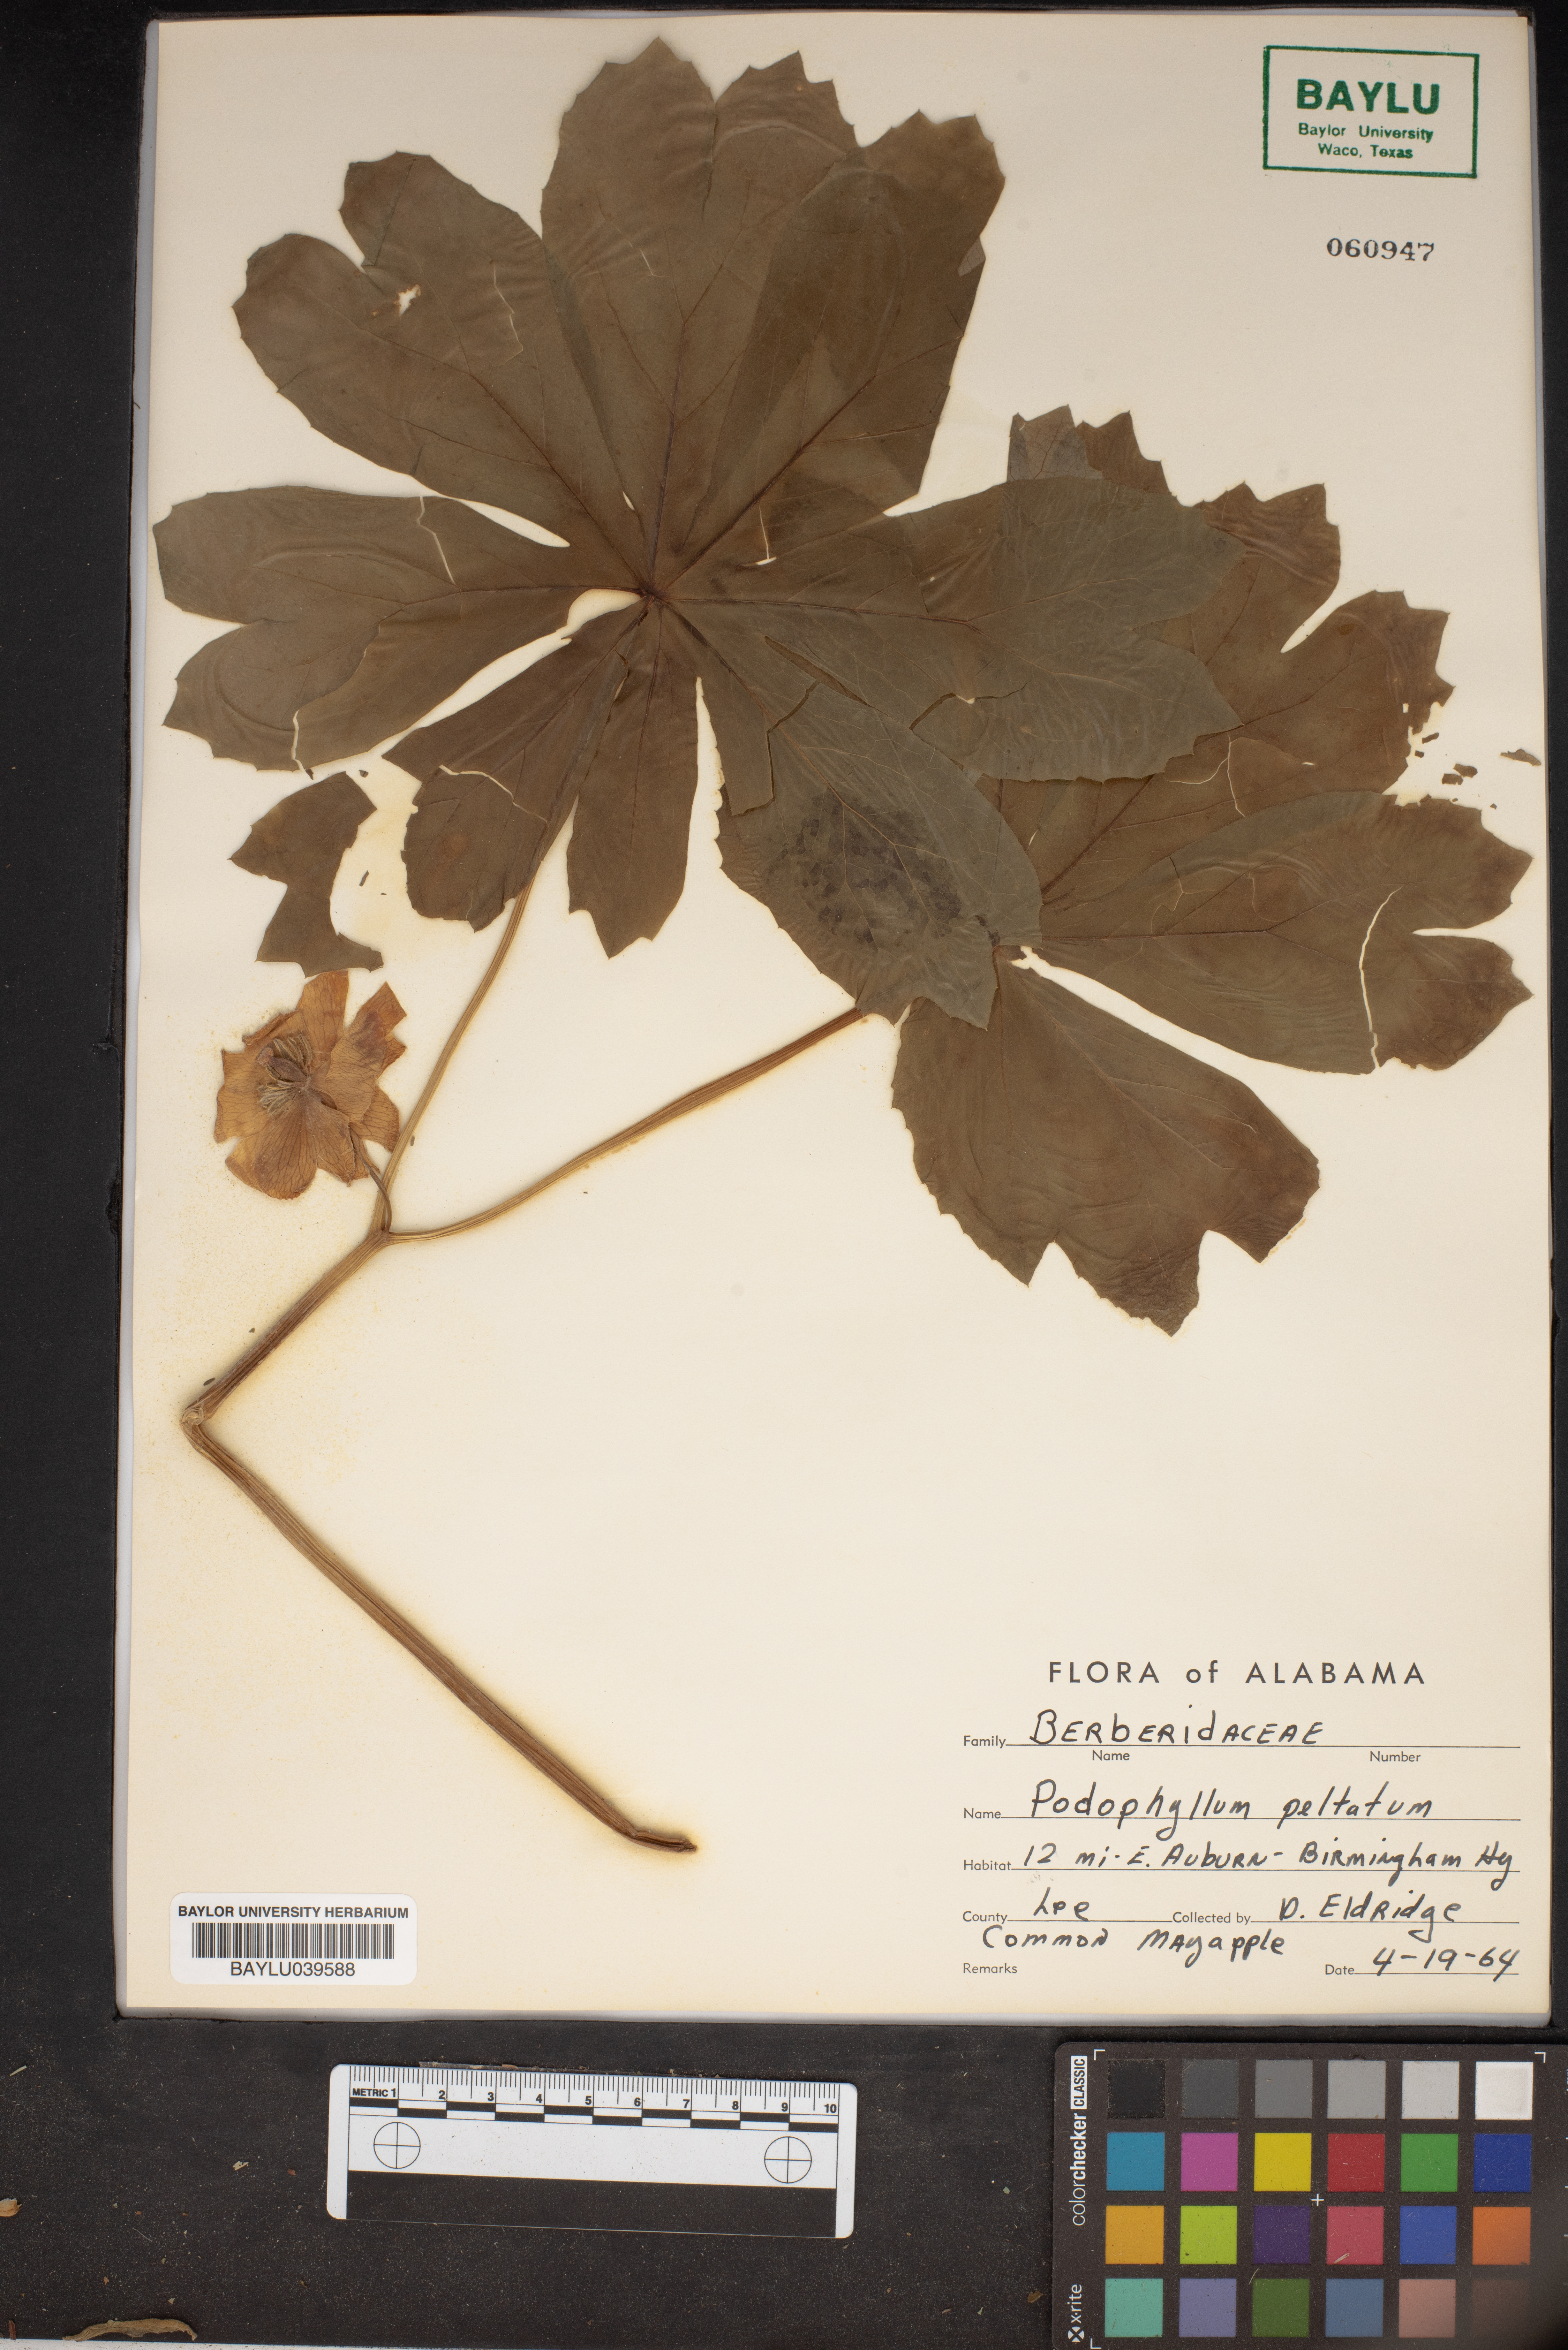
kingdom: Plantae
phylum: Tracheophyta
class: Magnoliopsida
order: Ranunculales
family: Berberidaceae
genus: Podophyllum
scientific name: Podophyllum peltatum
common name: Wild mandrake
